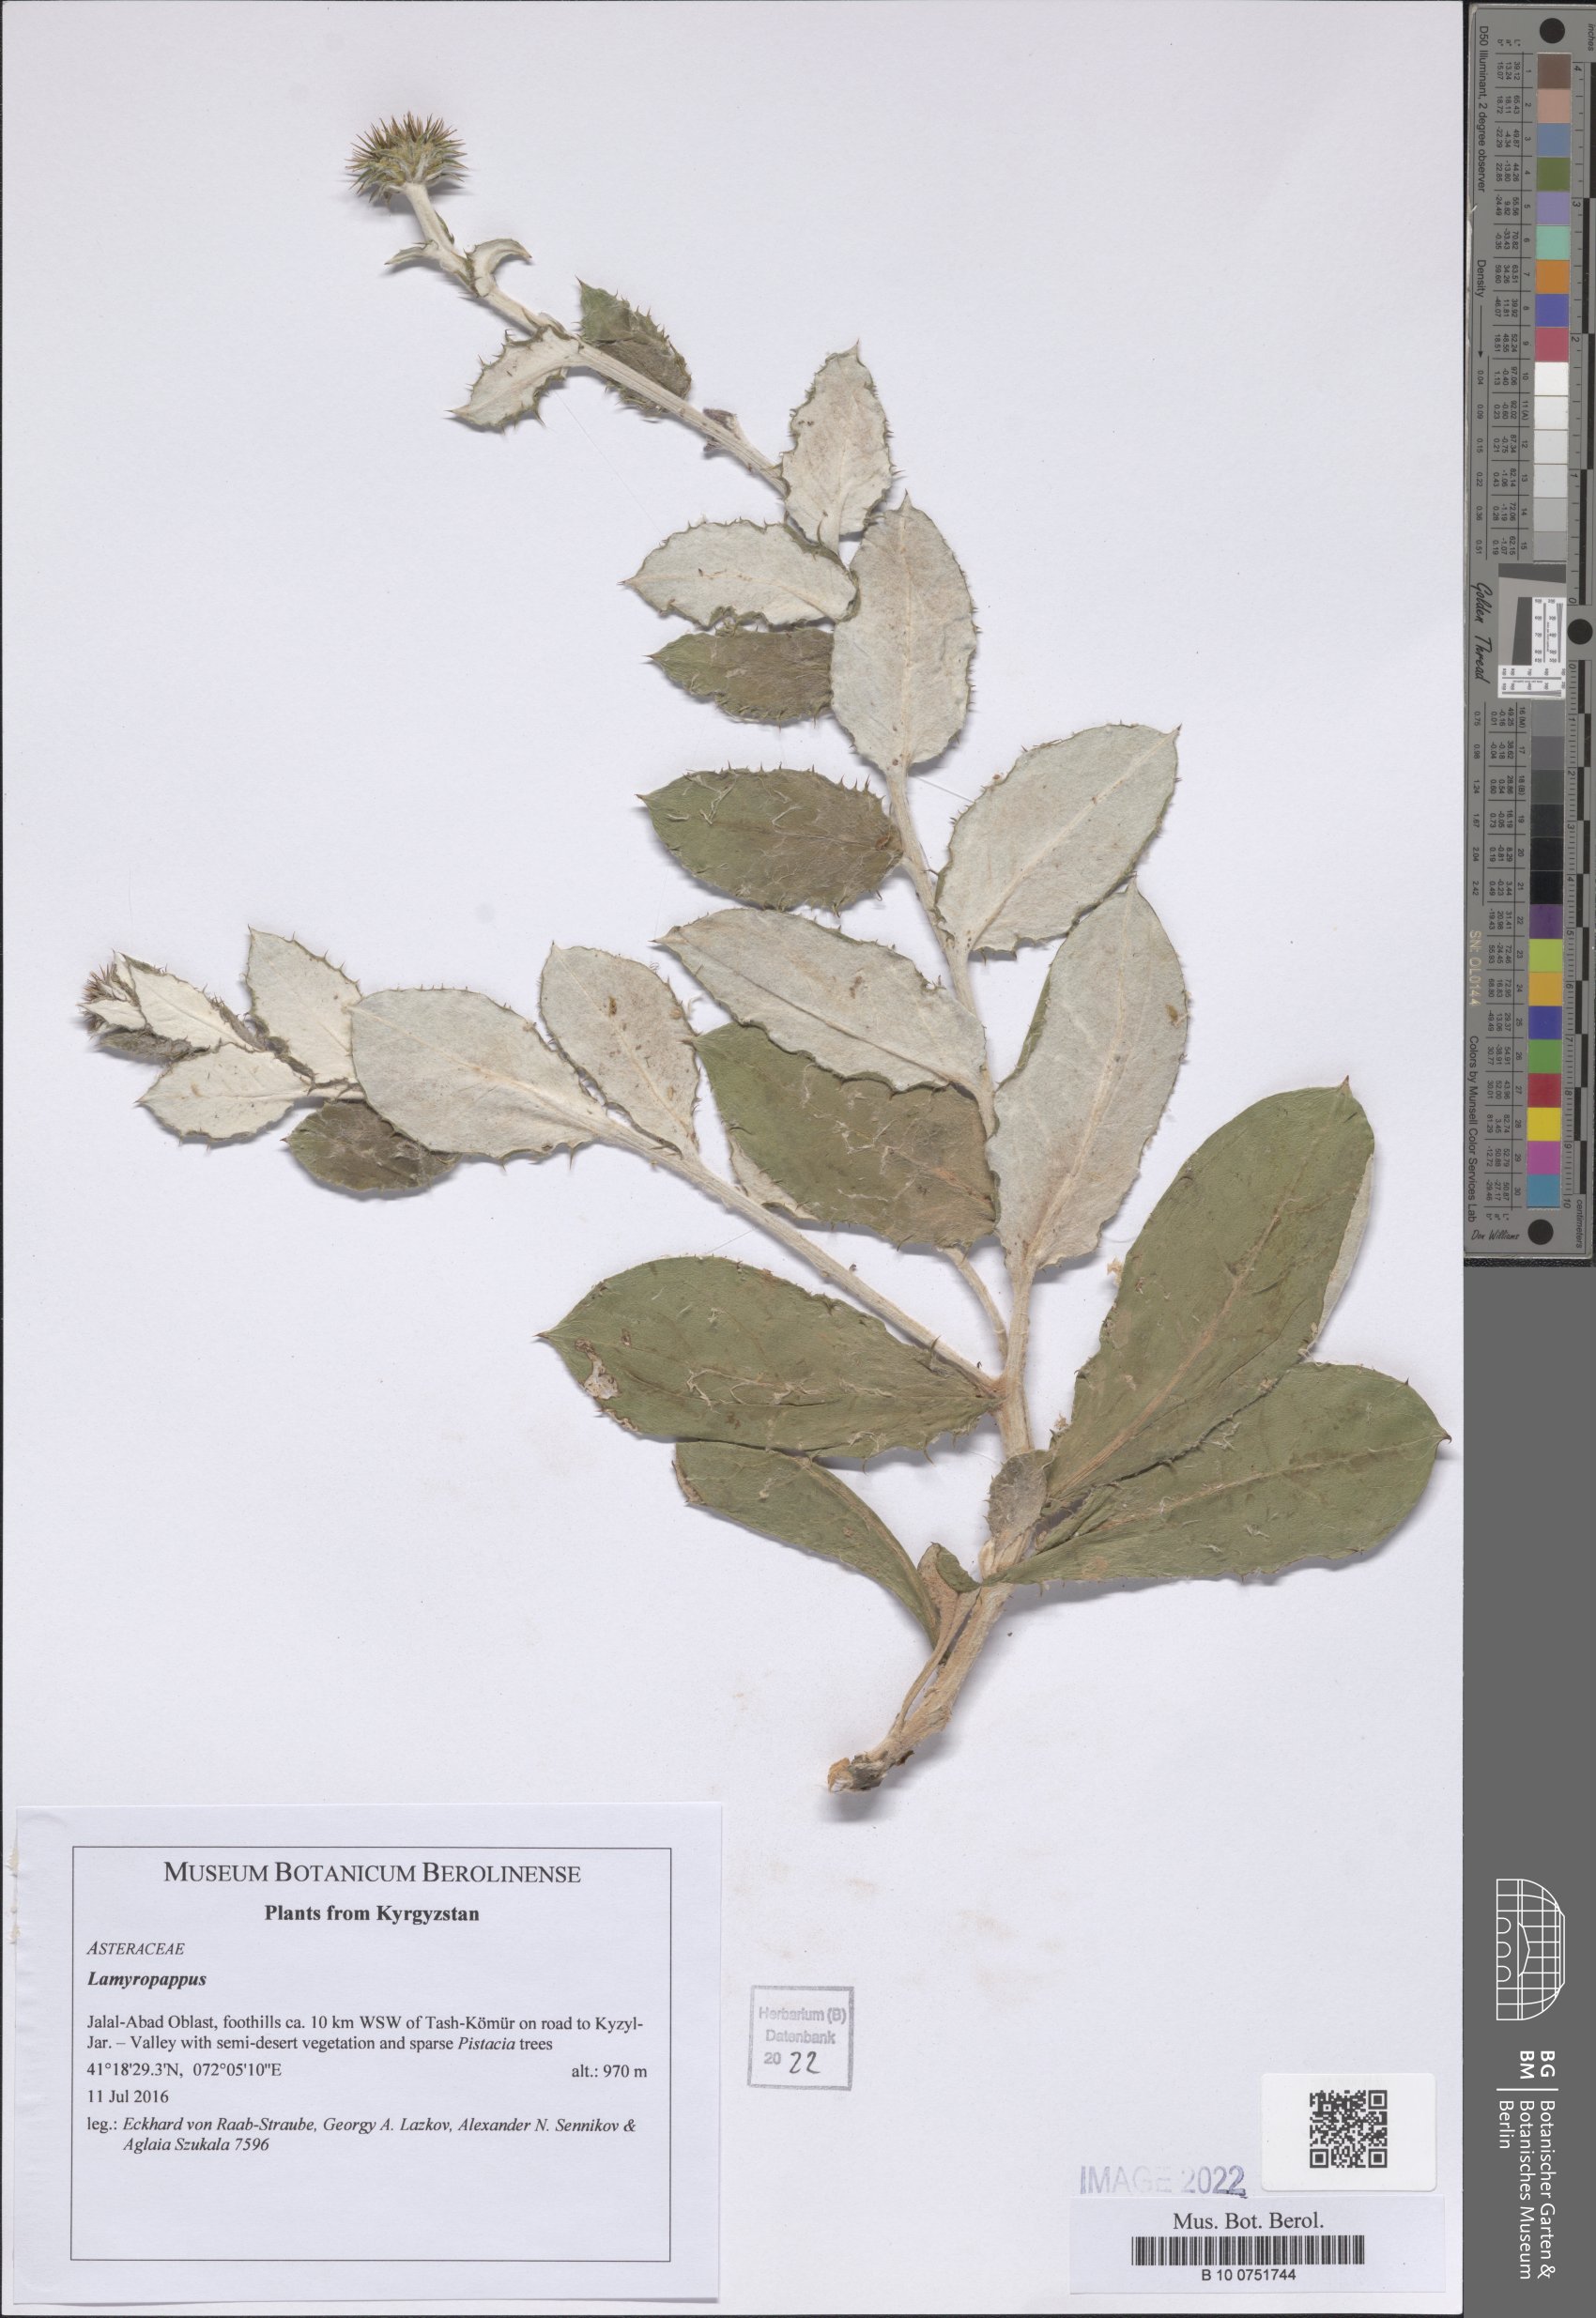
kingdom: Plantae
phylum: Tracheophyta
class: Magnoliopsida
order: Asterales
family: Asteraceae
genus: Lamyropappus
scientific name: Lamyropappus schakaptaricus
